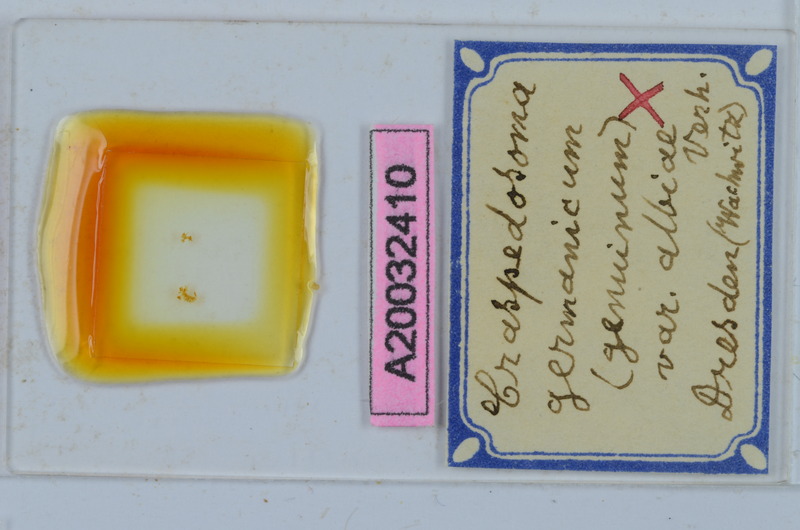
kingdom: Animalia
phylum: Arthropoda
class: Diplopoda
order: Chordeumatida
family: Craspedosomatidae
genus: Craspedosoma
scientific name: Craspedosoma rawlinsii
